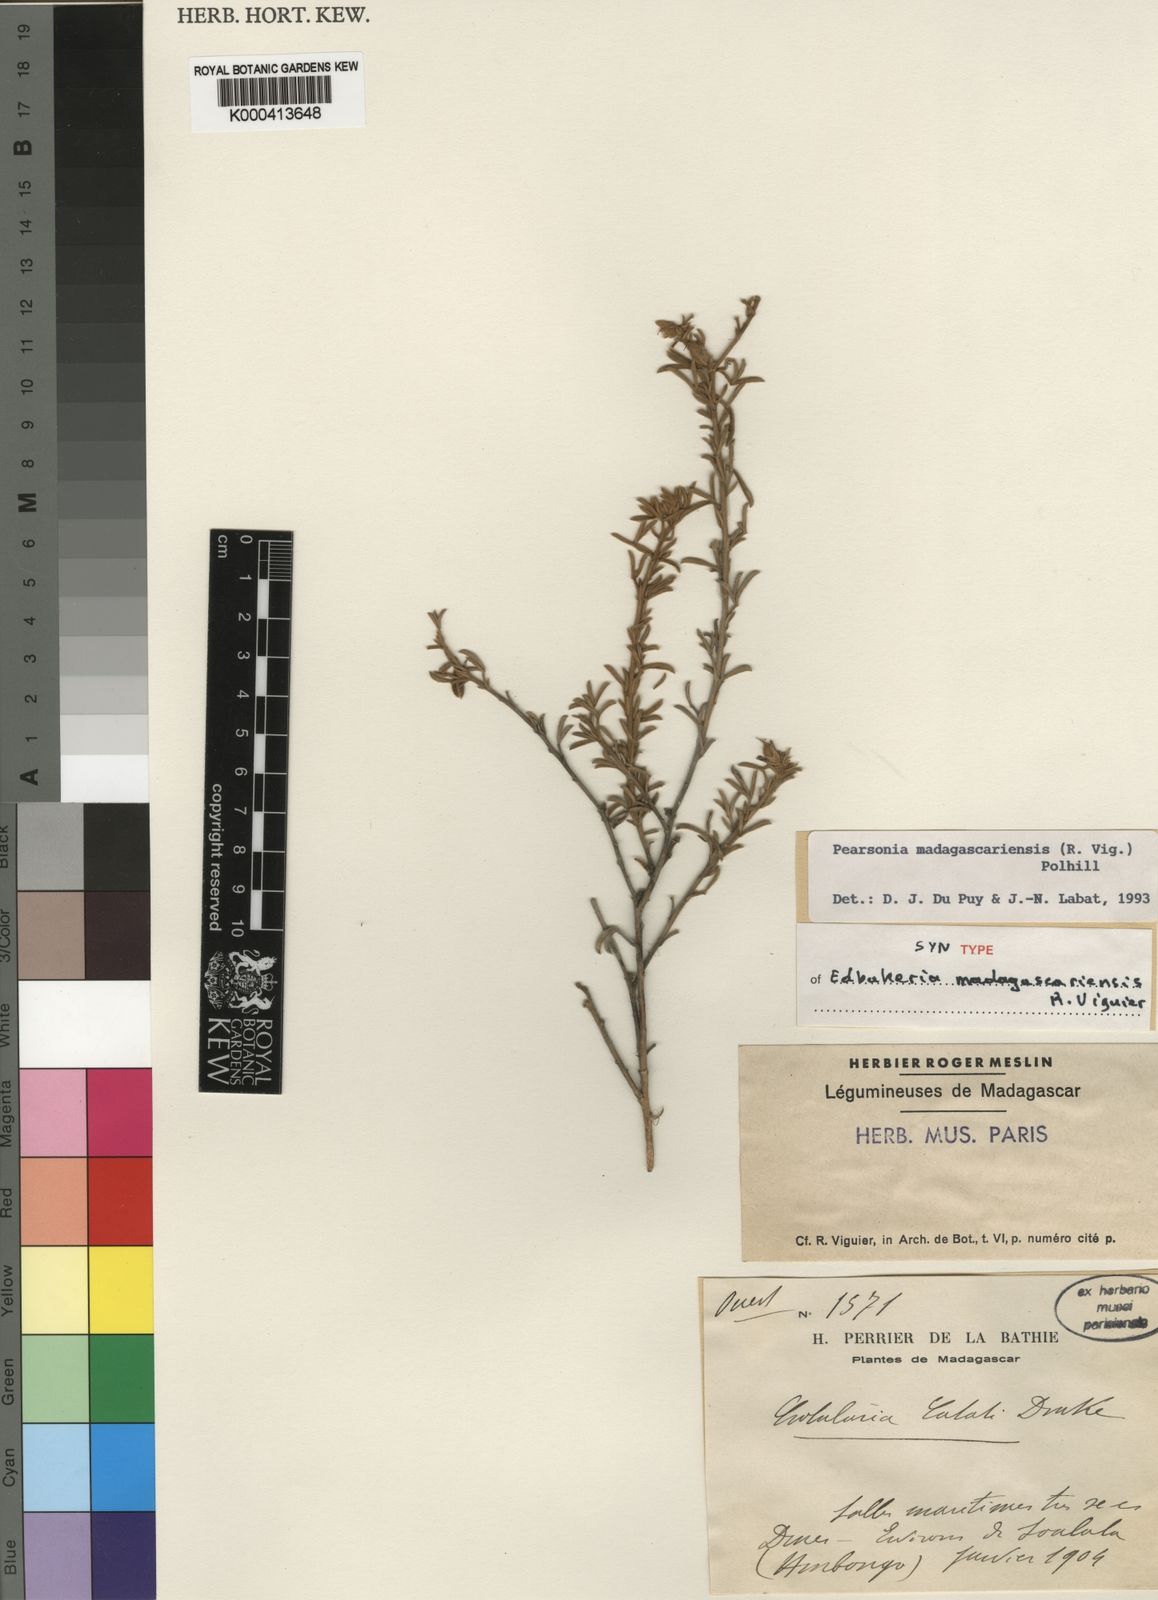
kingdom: Plantae
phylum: Tracheophyta
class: Magnoliopsida
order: Fabales
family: Fabaceae
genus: Pearsonia
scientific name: Pearsonia madagascariensis
